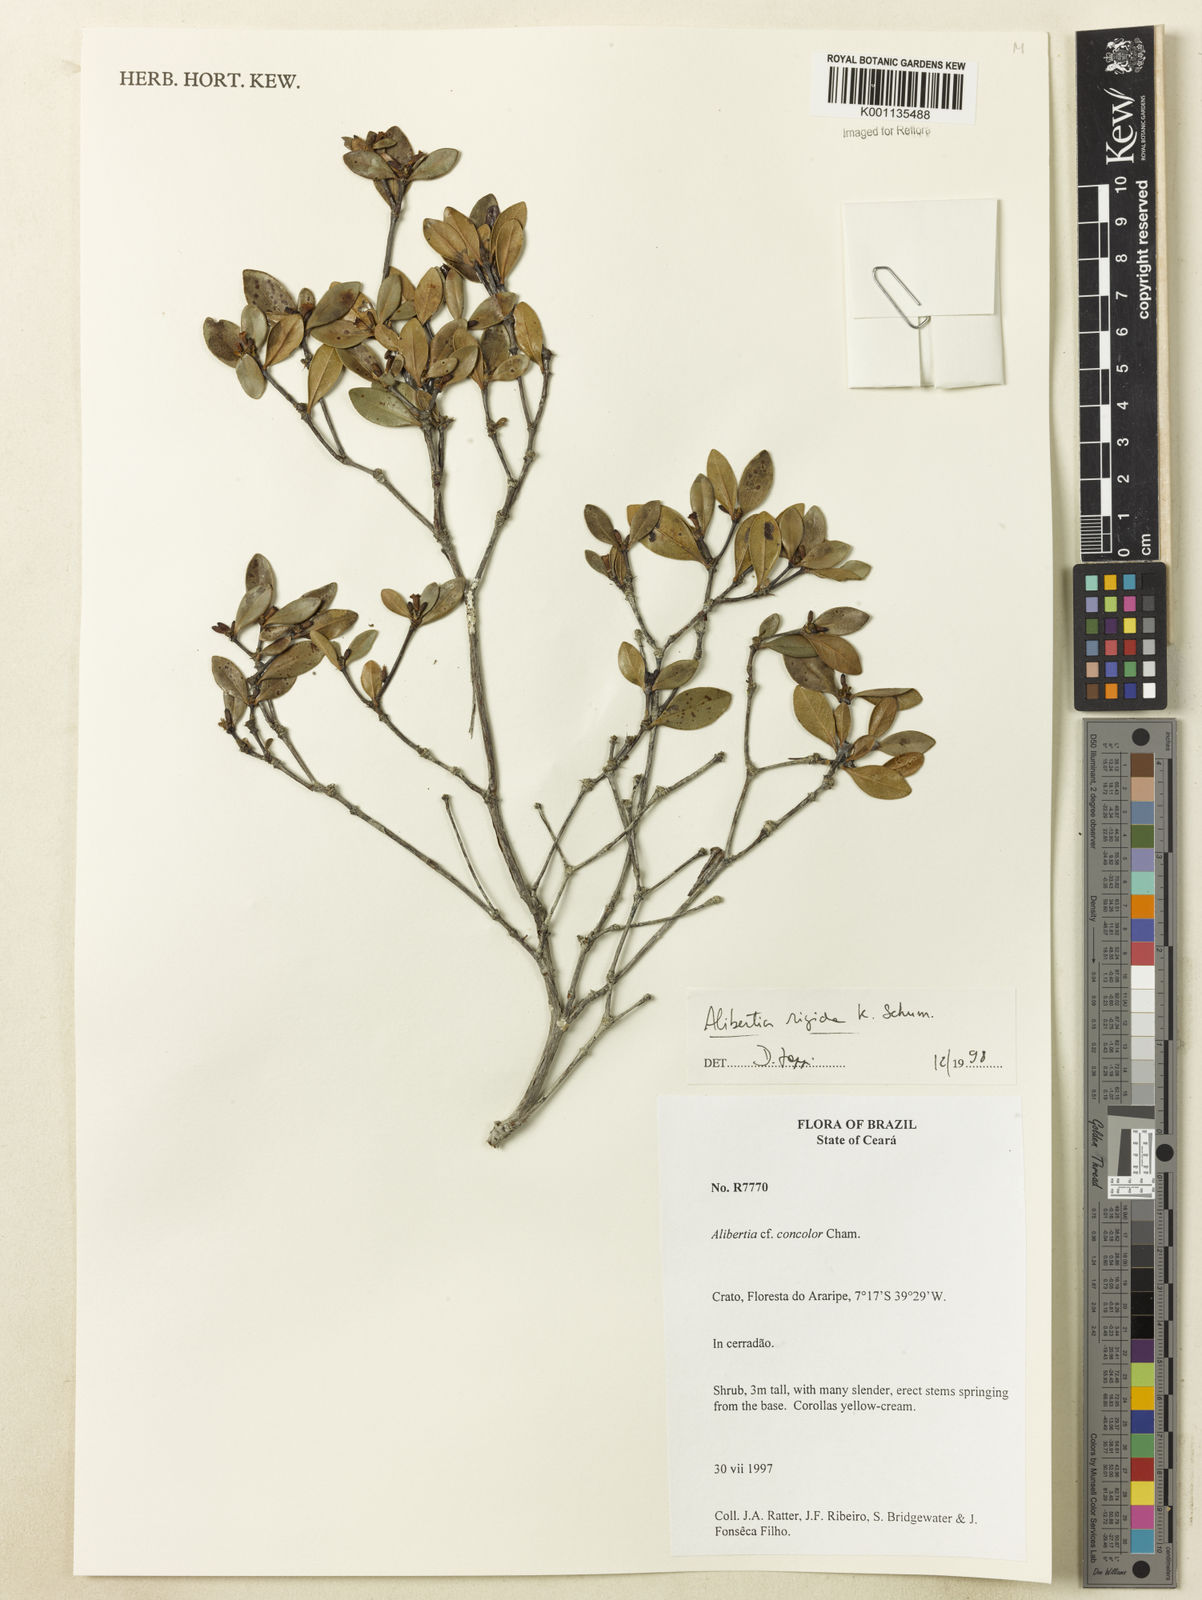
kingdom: Plantae
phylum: Tracheophyta
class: Magnoliopsida
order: Gentianales
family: Rubiaceae
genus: Cordiera
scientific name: Cordiera rigida
